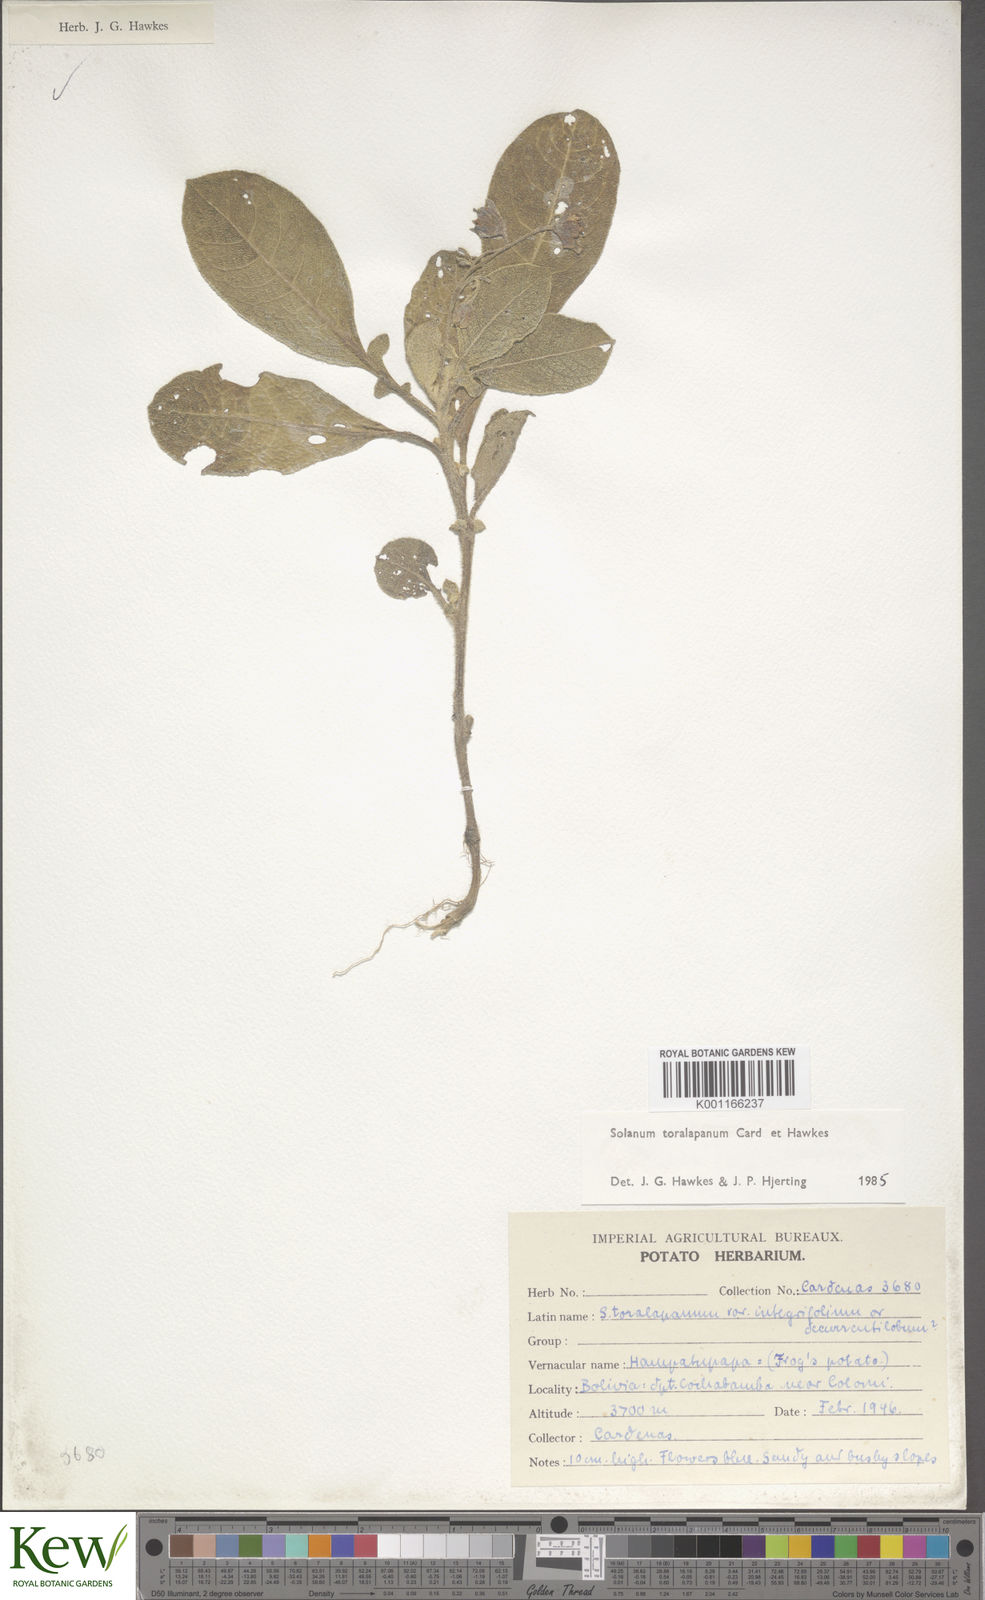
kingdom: Plantae
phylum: Tracheophyta
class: Magnoliopsida
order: Solanales
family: Solanaceae
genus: Solanum
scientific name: Solanum
